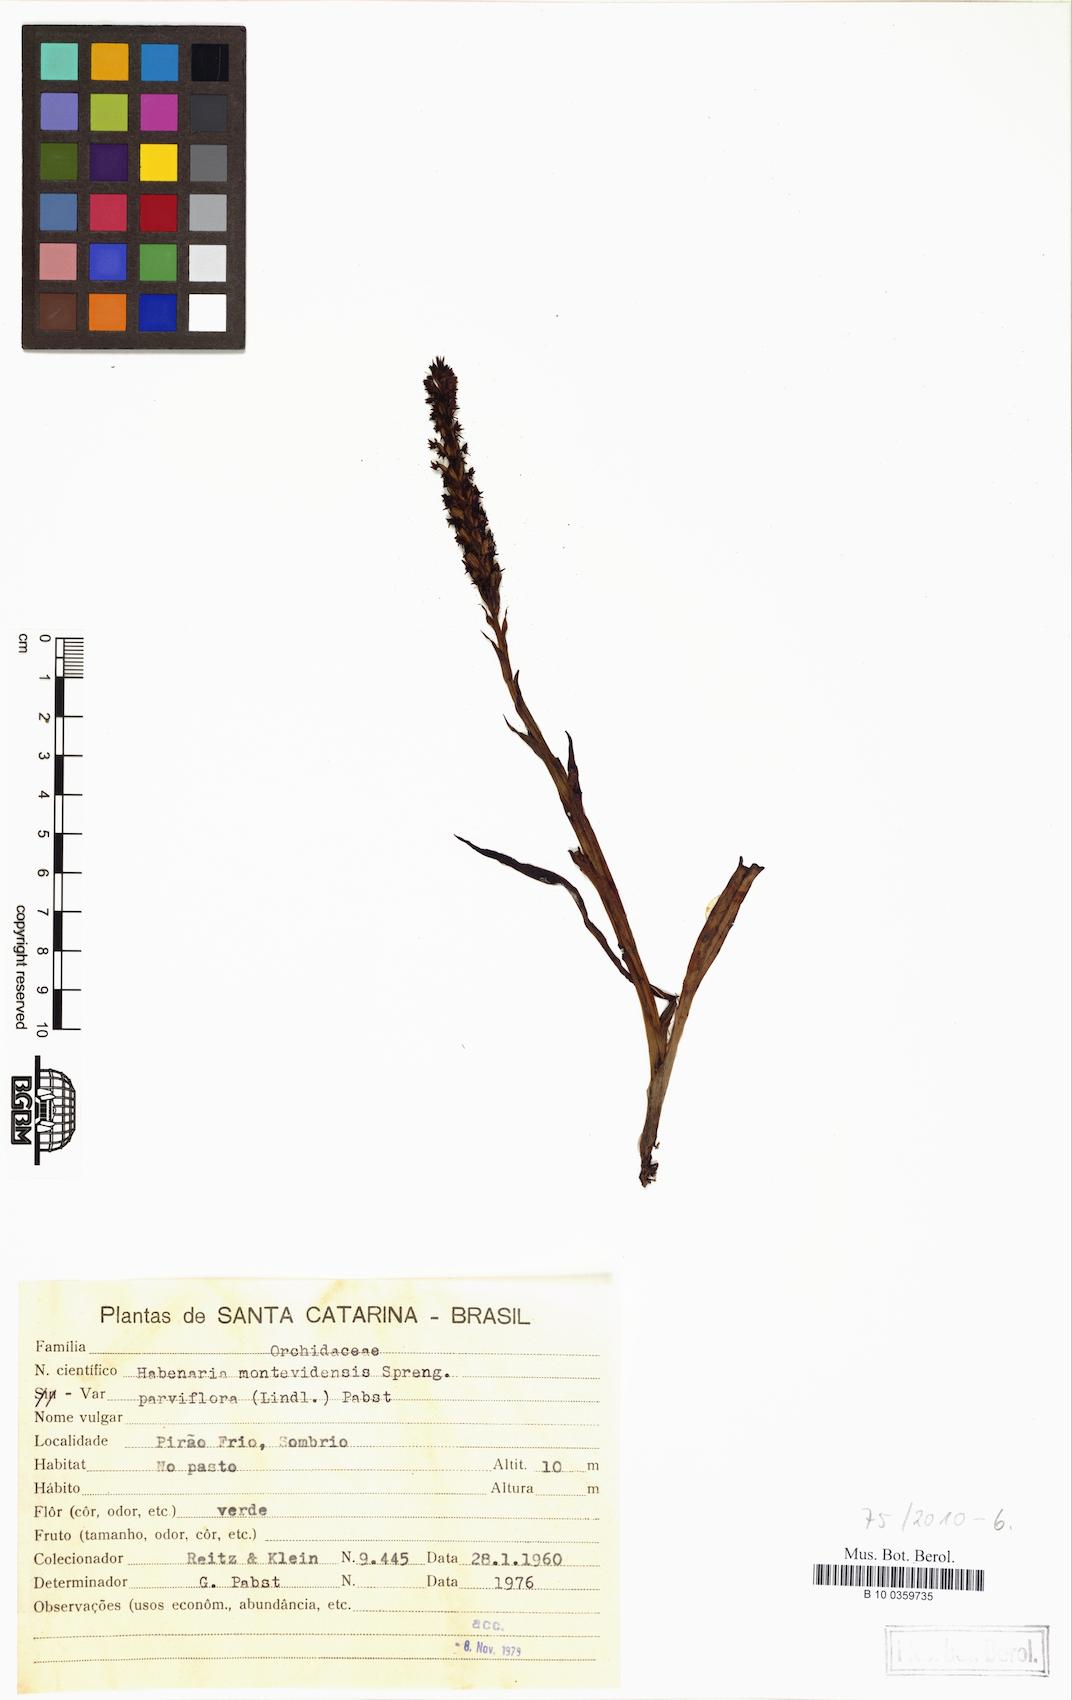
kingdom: Plantae
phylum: Tracheophyta
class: Liliopsida
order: Asparagales
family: Orchidaceae
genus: Habenaria
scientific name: Habenaria parviflora
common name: Small flowered habenaria
